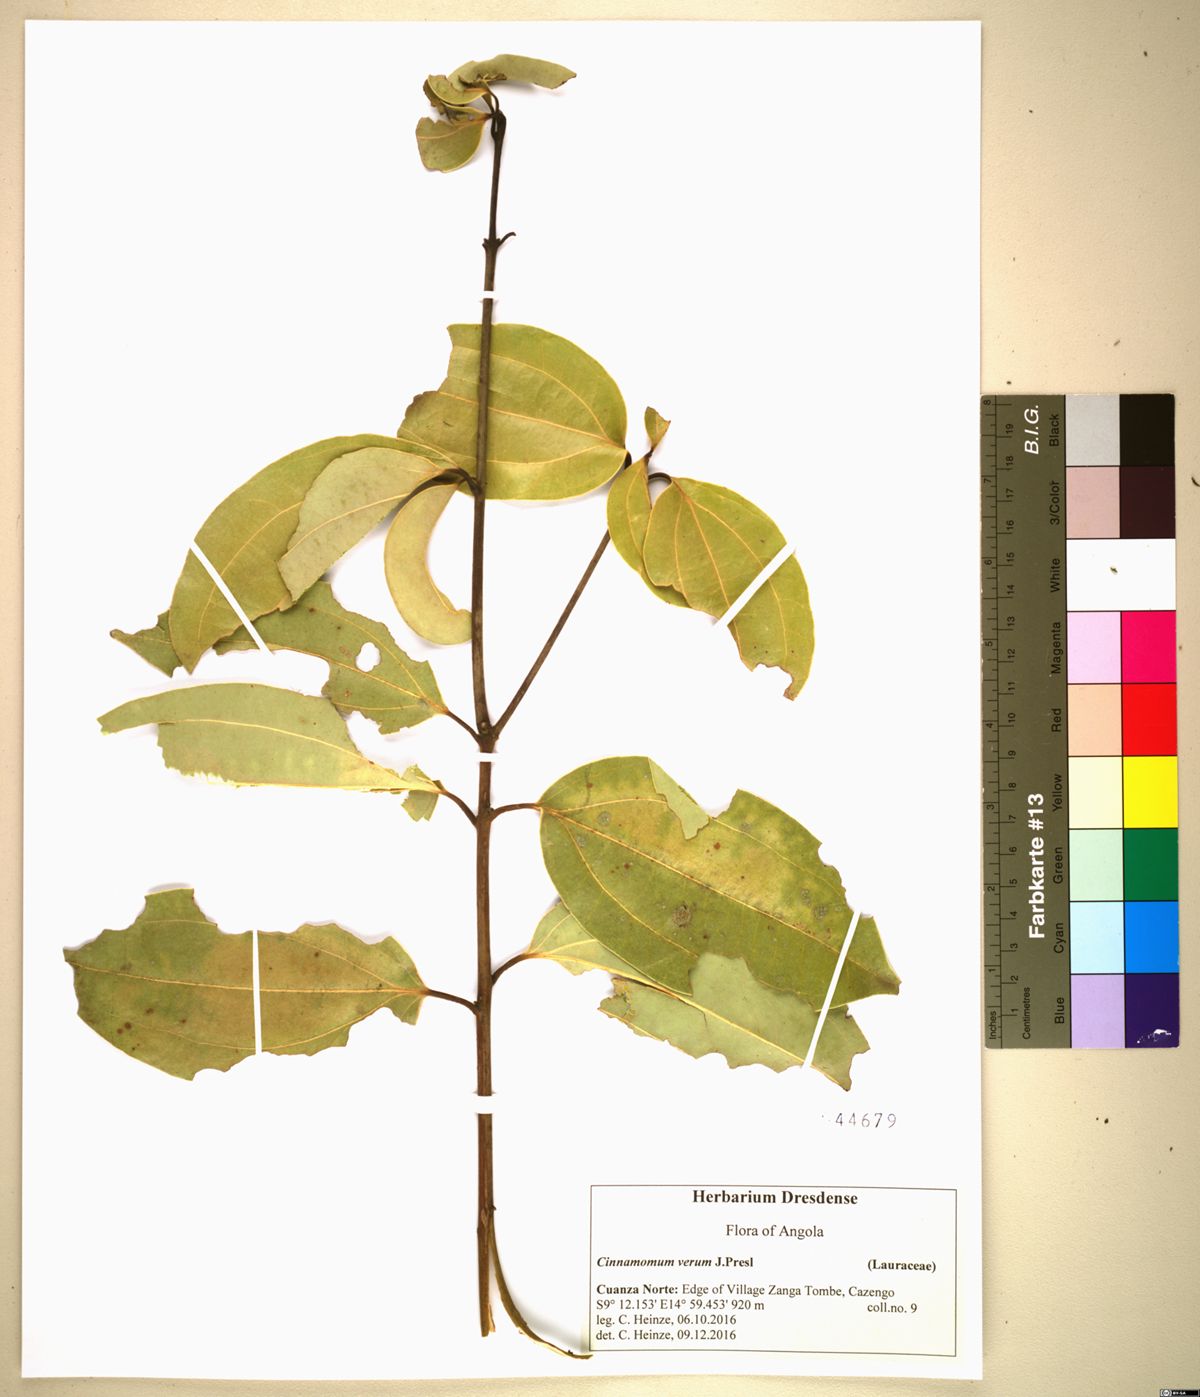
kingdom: Plantae
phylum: Tracheophyta
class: Magnoliopsida
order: Laurales
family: Lauraceae
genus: Cinnamomum
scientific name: Cinnamomum verum
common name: Cinnamon
